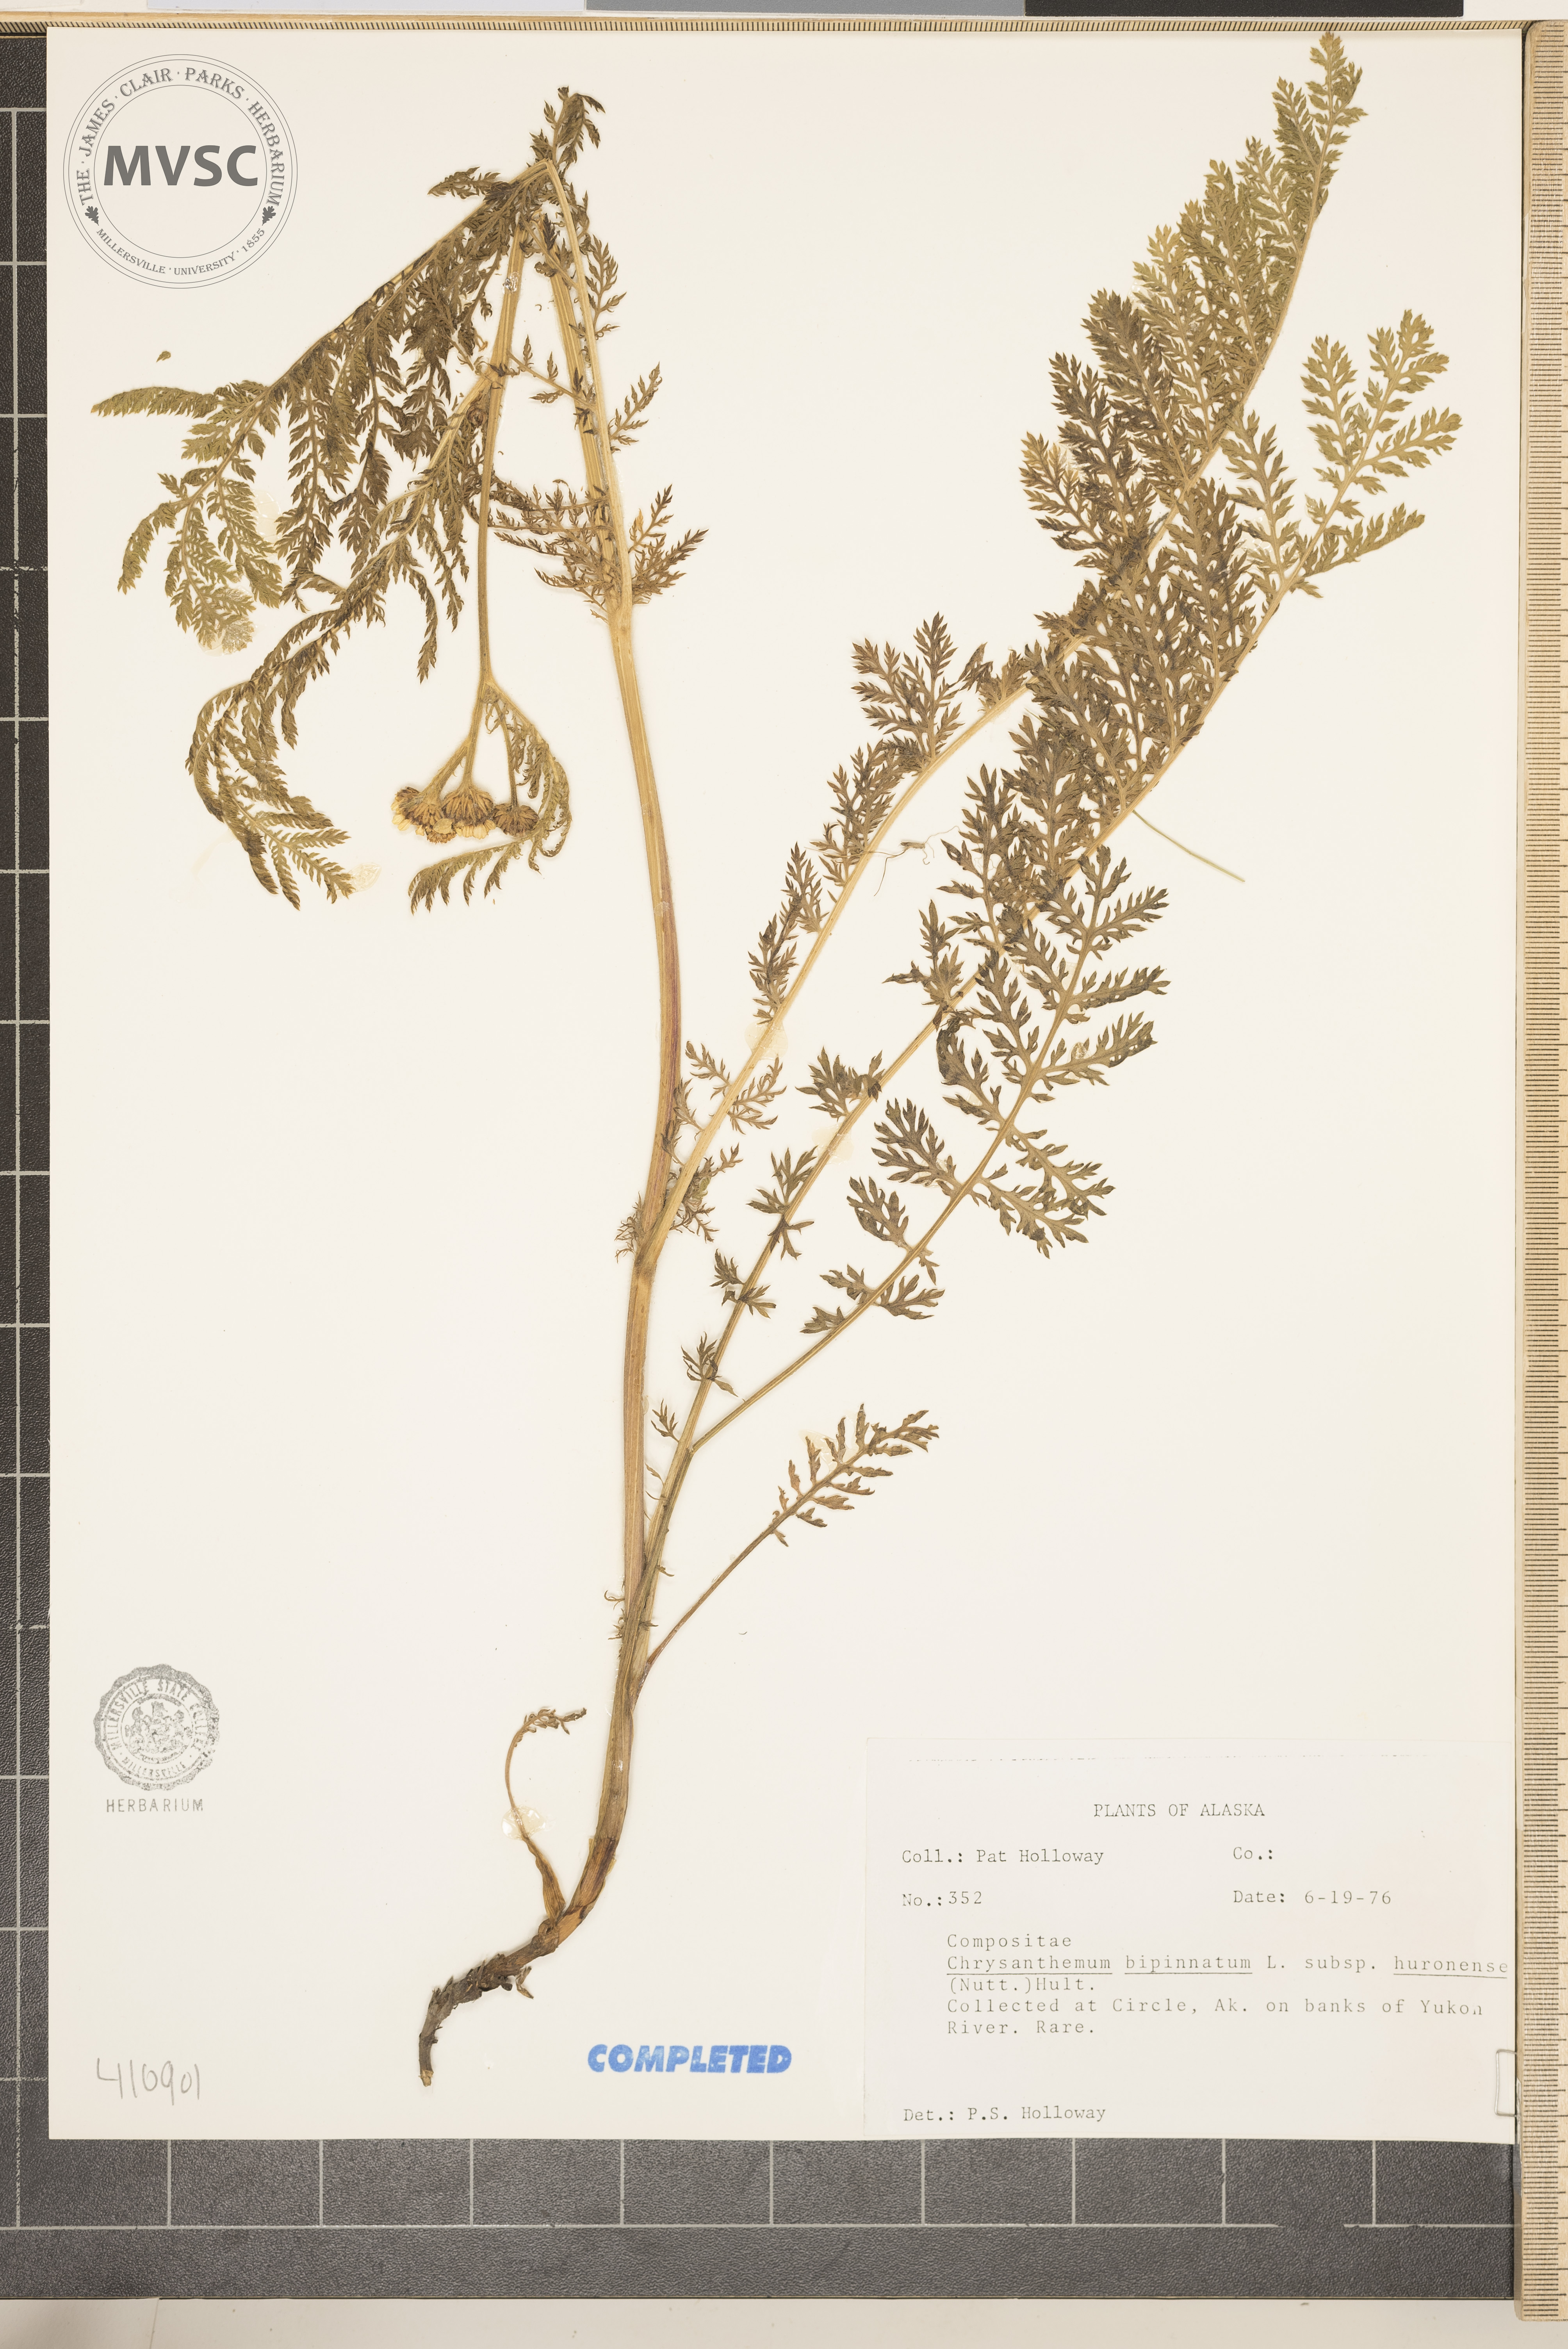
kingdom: Plantae
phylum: Tracheophyta
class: Magnoliopsida
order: Asterales
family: Asteraceae
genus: Tanacetum
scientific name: Tanacetum bipinnatum
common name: Dwarf tansy
